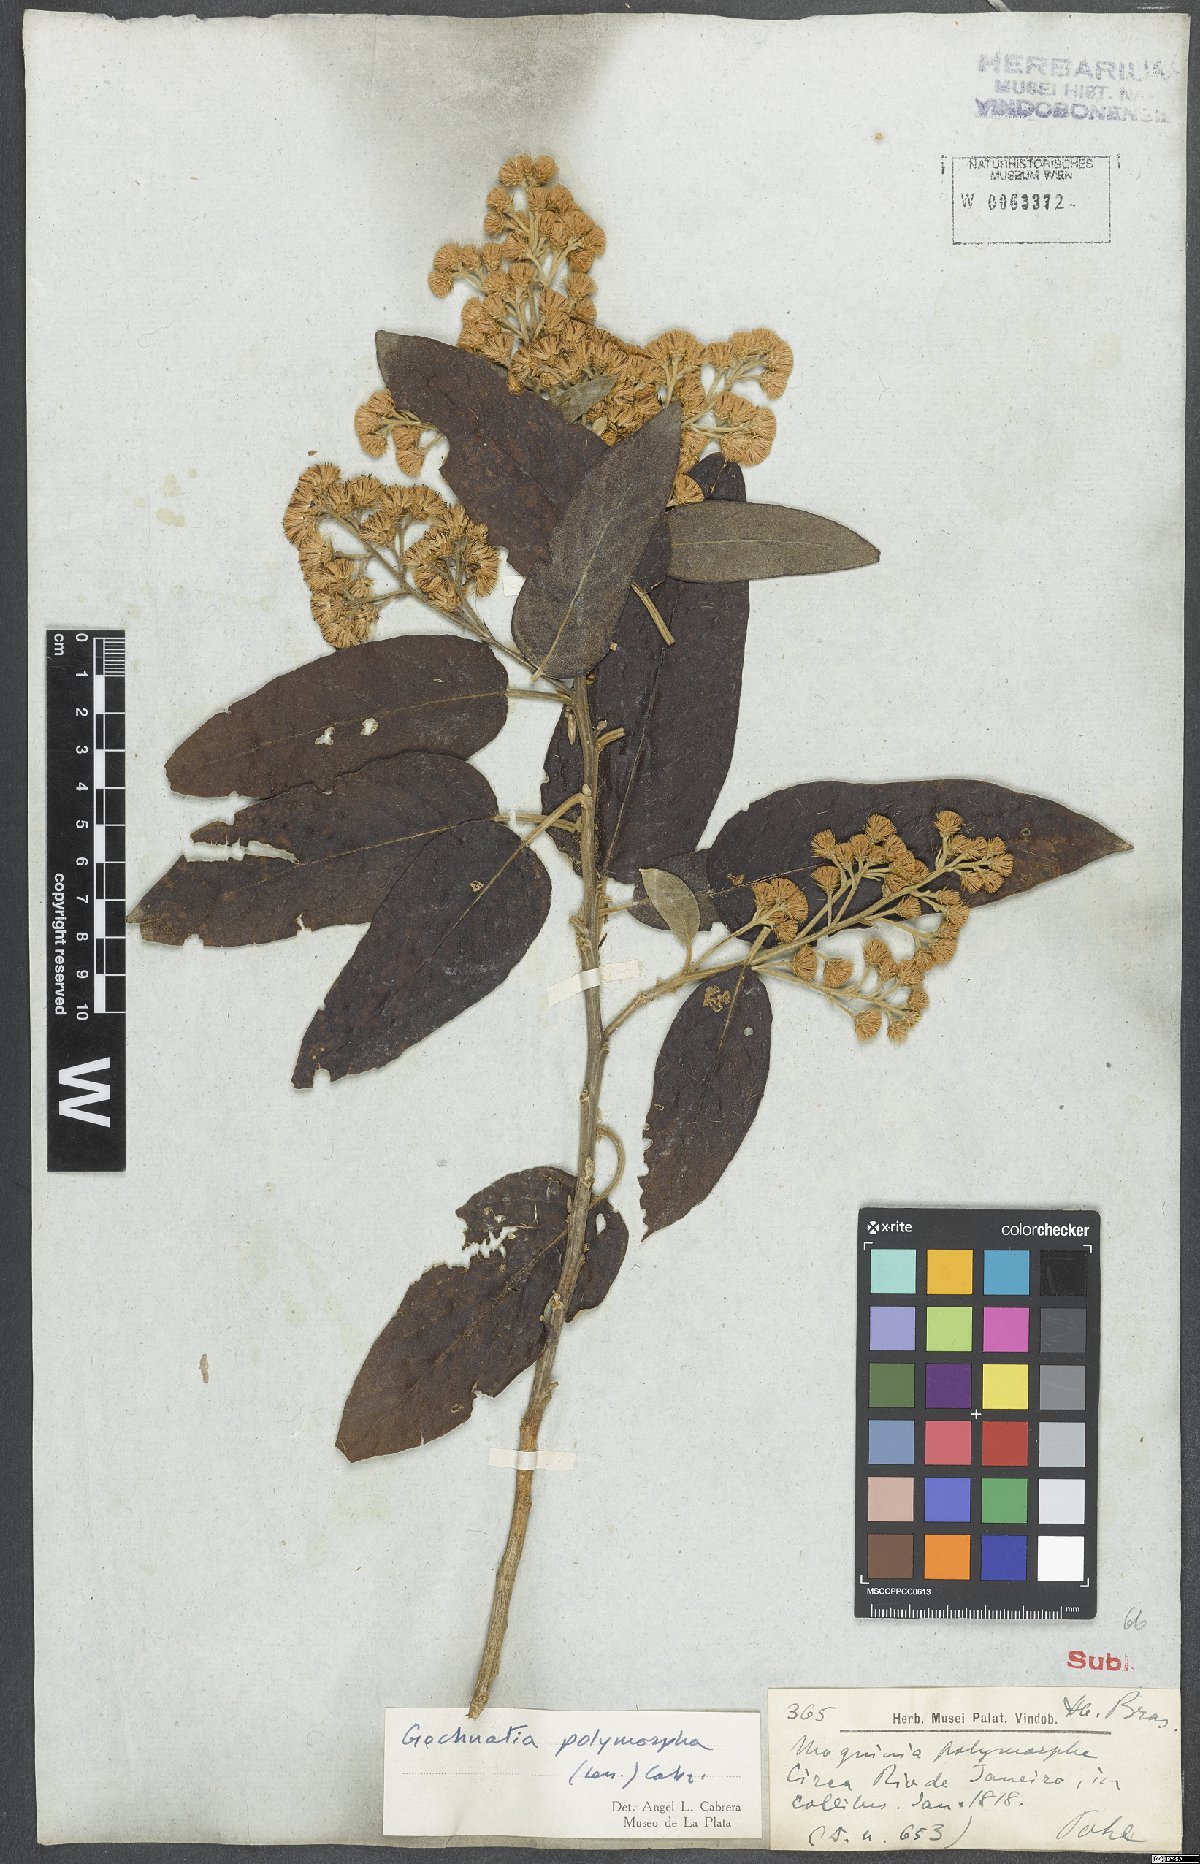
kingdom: Plantae
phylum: Tracheophyta
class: Magnoliopsida
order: Asterales
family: Asteraceae
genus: Moquiniastrum
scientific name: Moquiniastrum polymorphum
